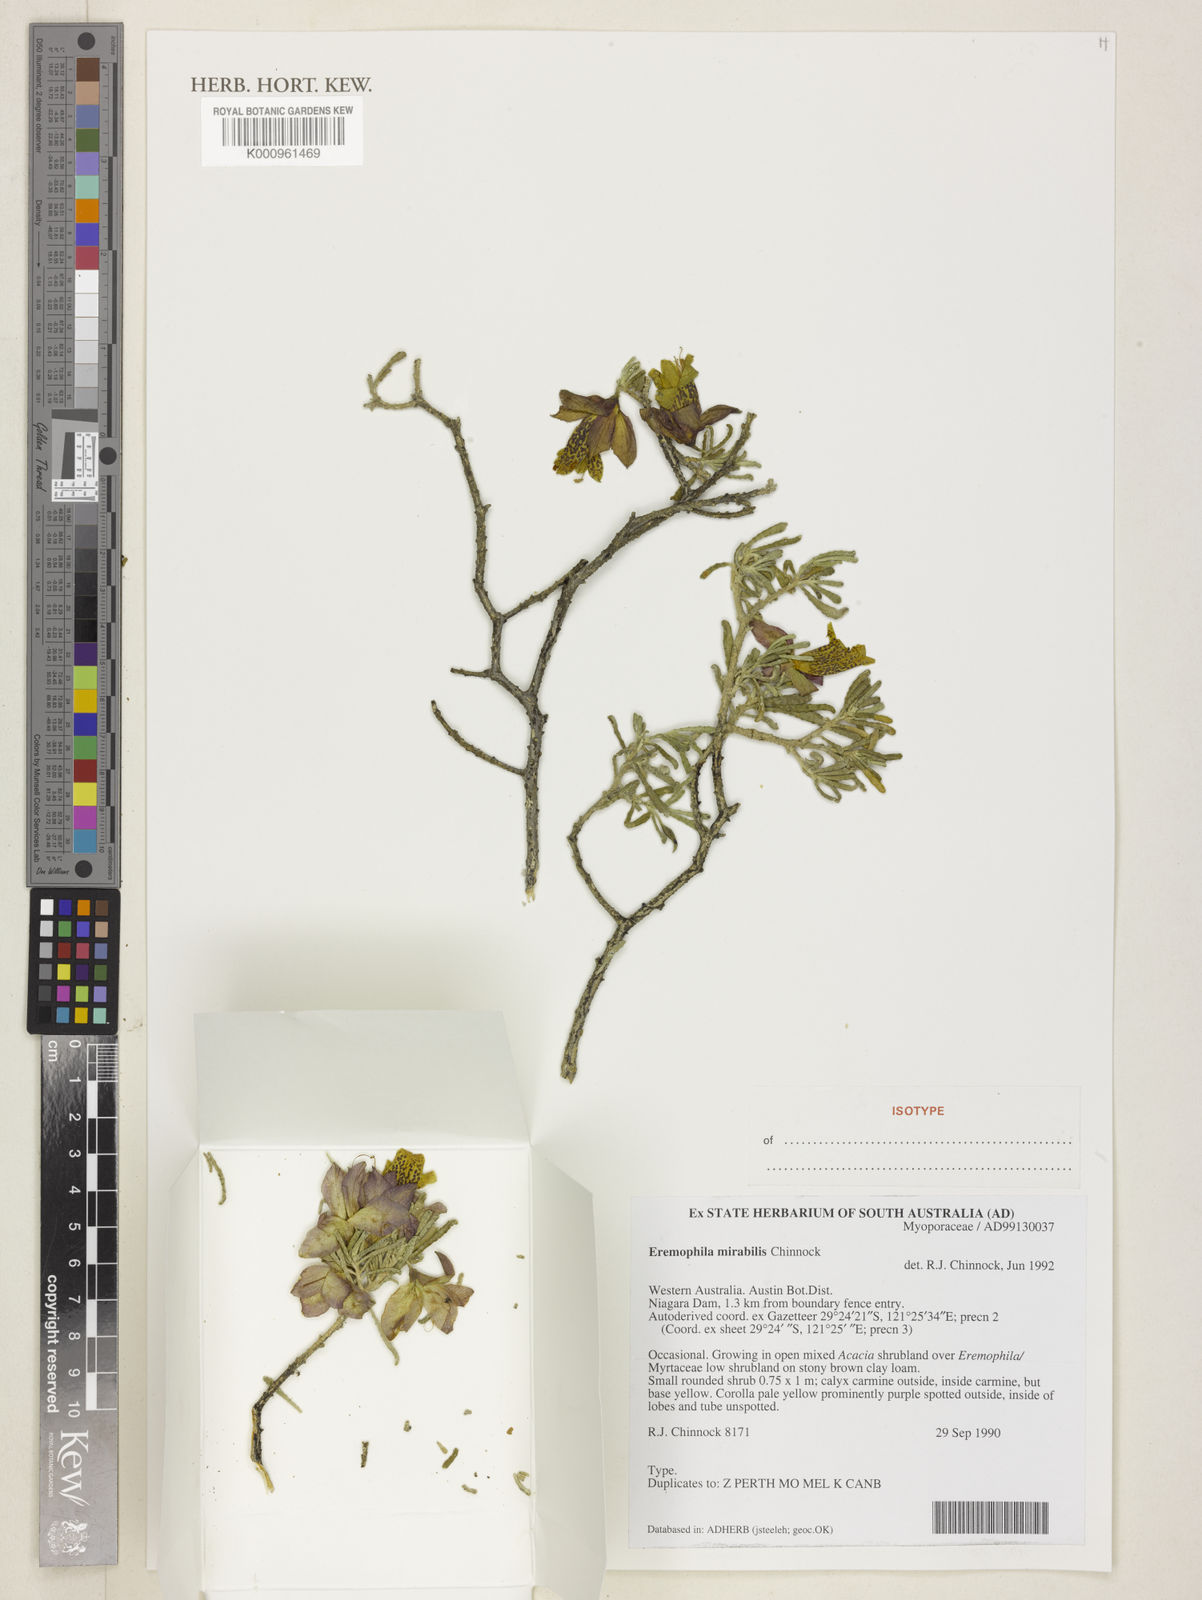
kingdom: Plantae
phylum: Tracheophyta
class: Magnoliopsida
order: Lamiales
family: Scrophulariaceae
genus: Eremophila
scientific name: Eremophila mirabilis
